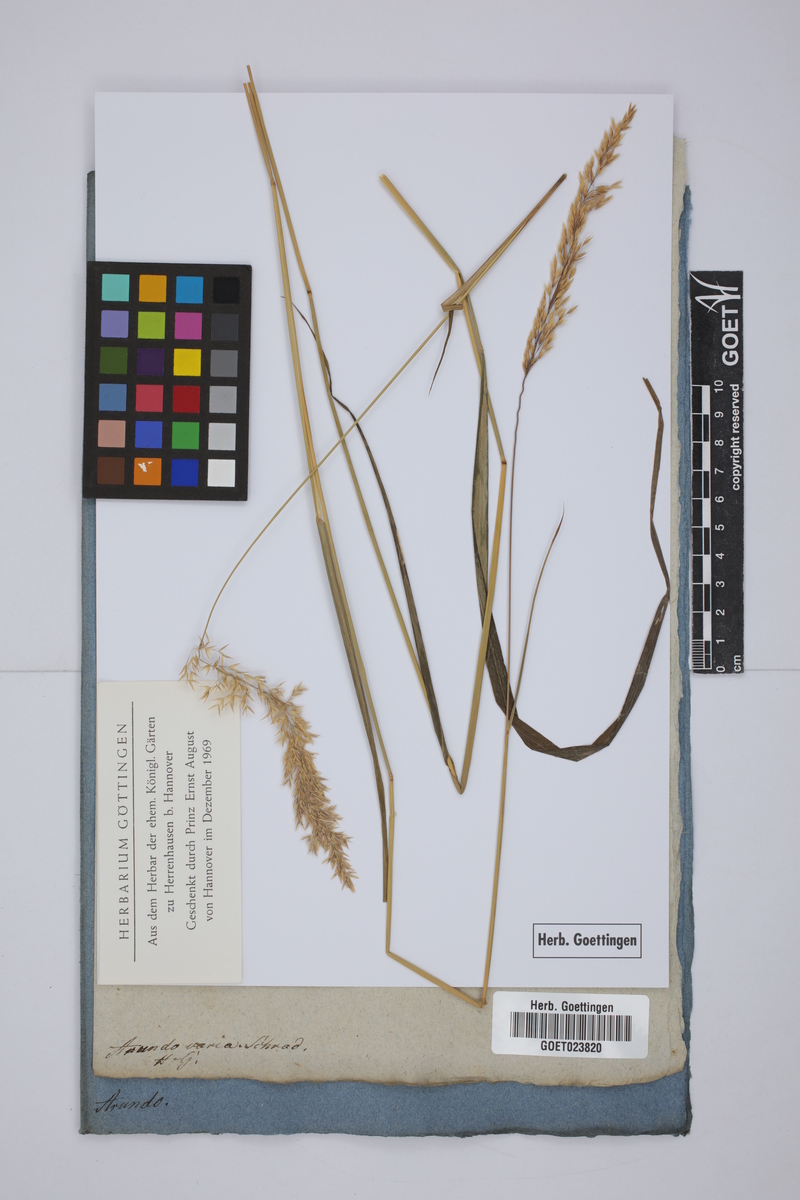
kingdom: Plantae
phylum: Tracheophyta
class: Liliopsida
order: Poales
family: Poaceae
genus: Calamagrostis
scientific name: Calamagrostis varia
